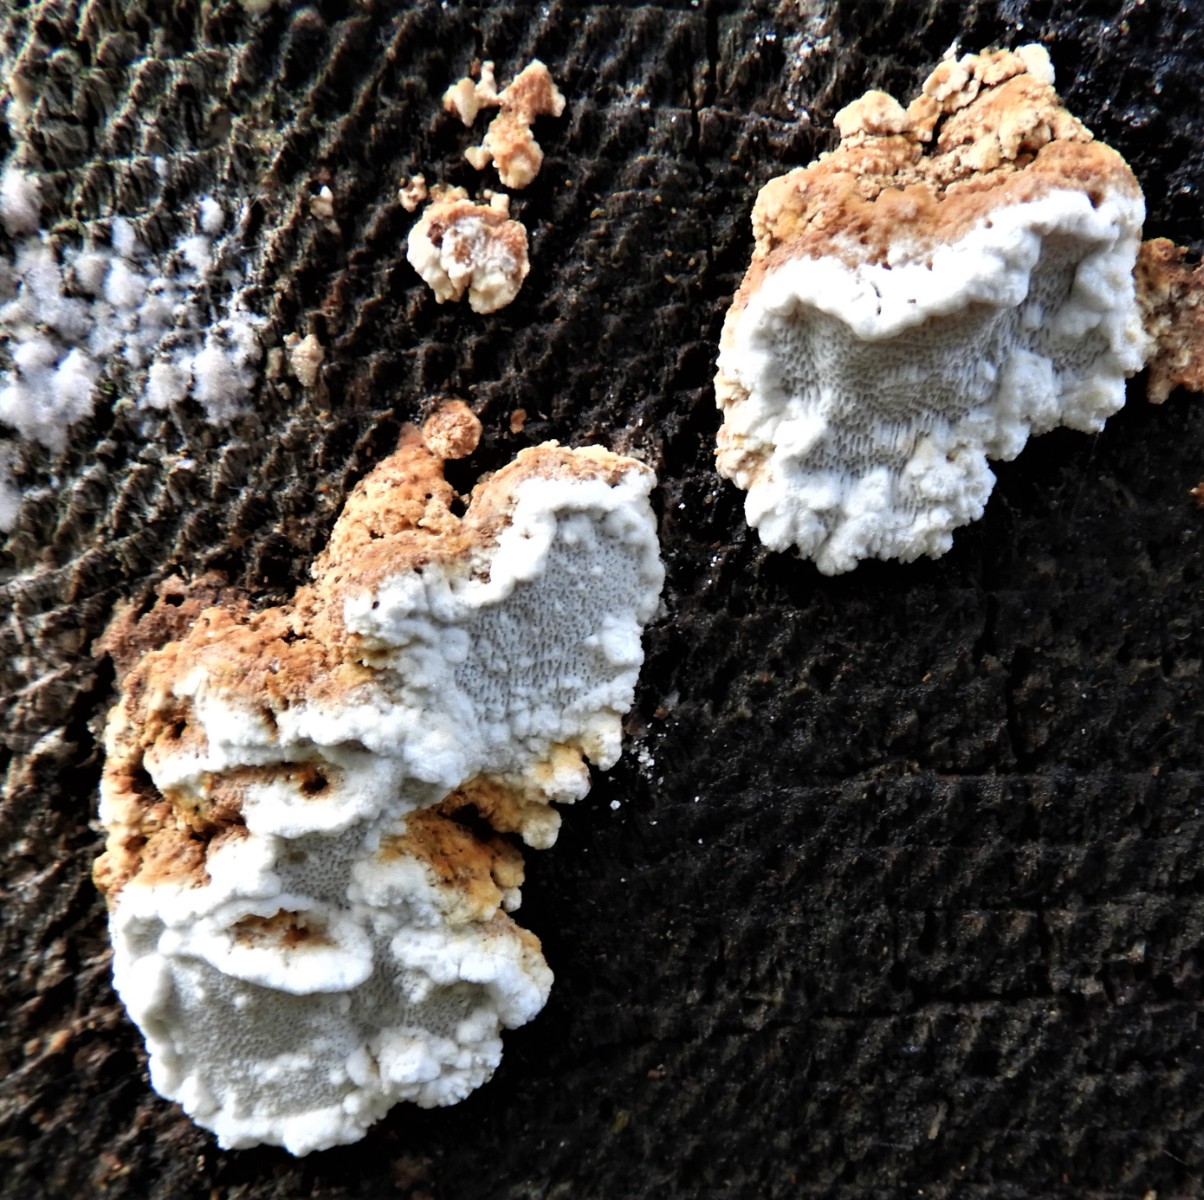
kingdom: Fungi
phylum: Basidiomycota
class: Agaricomycetes
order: Polyporales
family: Fomitopsidaceae
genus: Neoantrodia
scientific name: Neoantrodia serialis
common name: række-sejporesvamp
